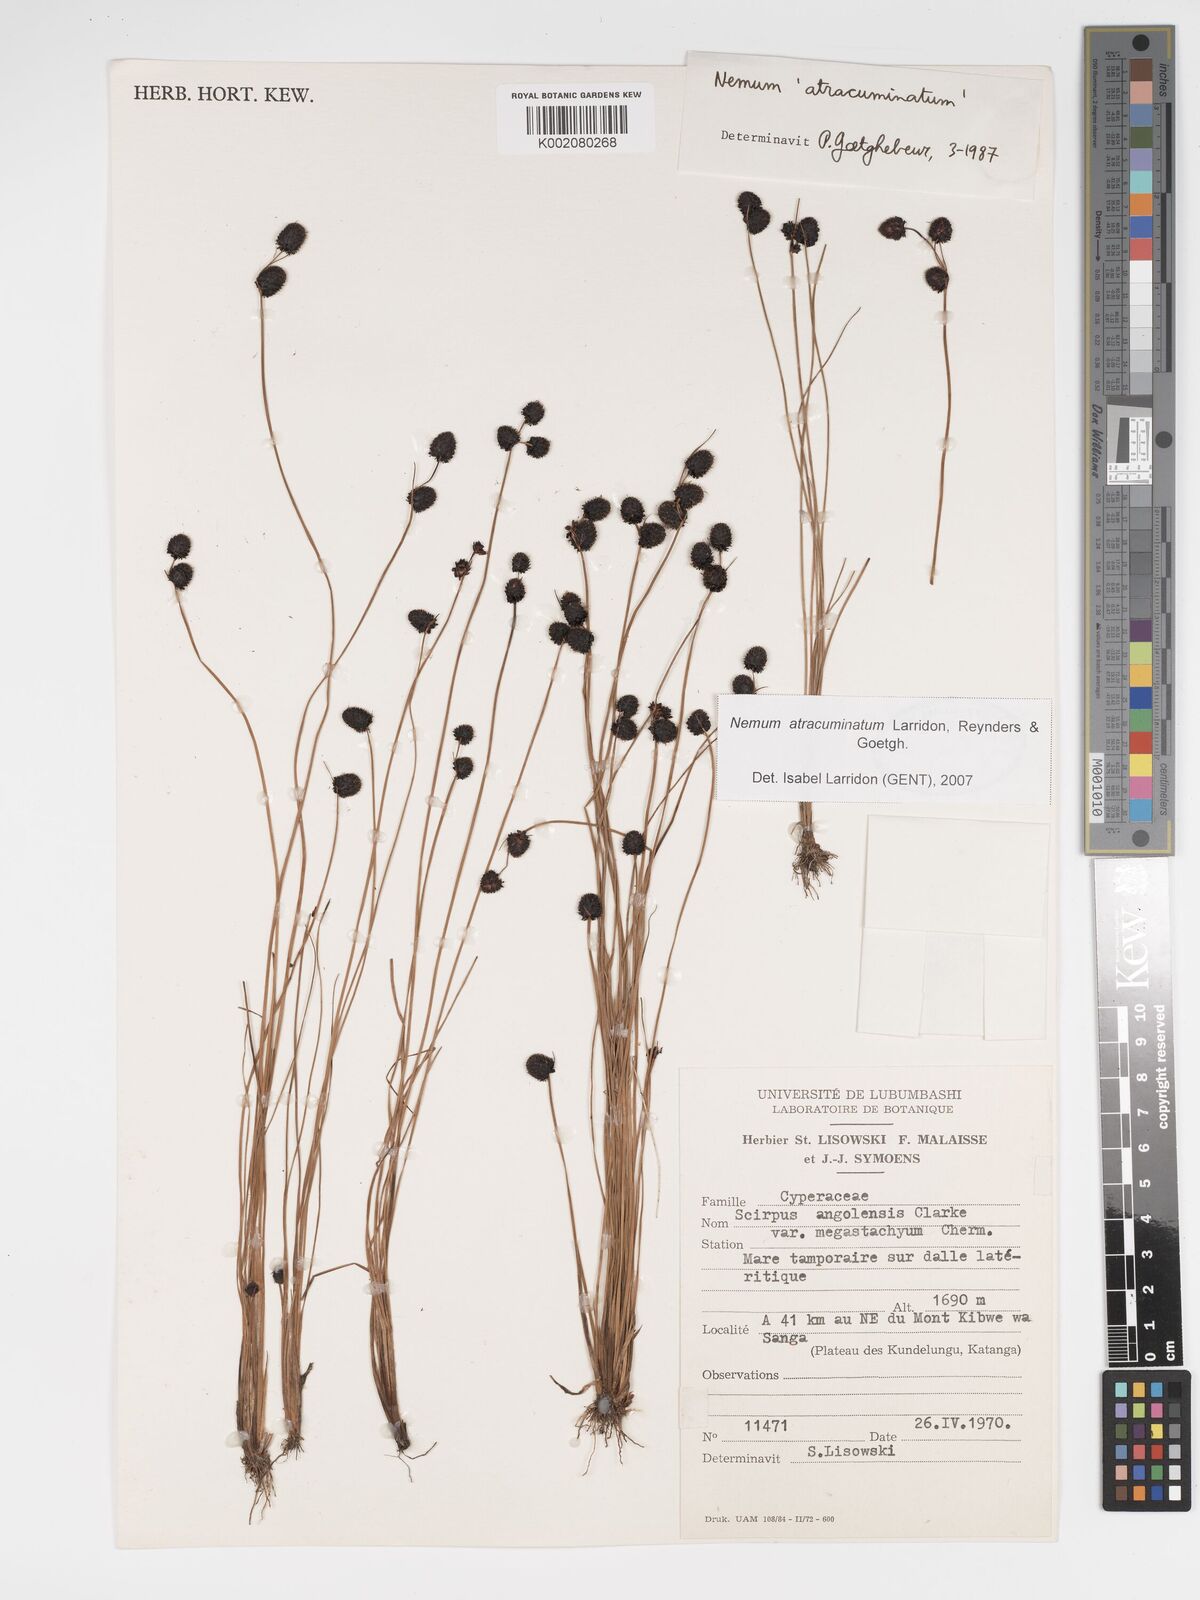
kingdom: Plantae
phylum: Tracheophyta
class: Liliopsida
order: Poales
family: Cyperaceae
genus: Bulbostylis
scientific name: Bulbostylis atracuminata
